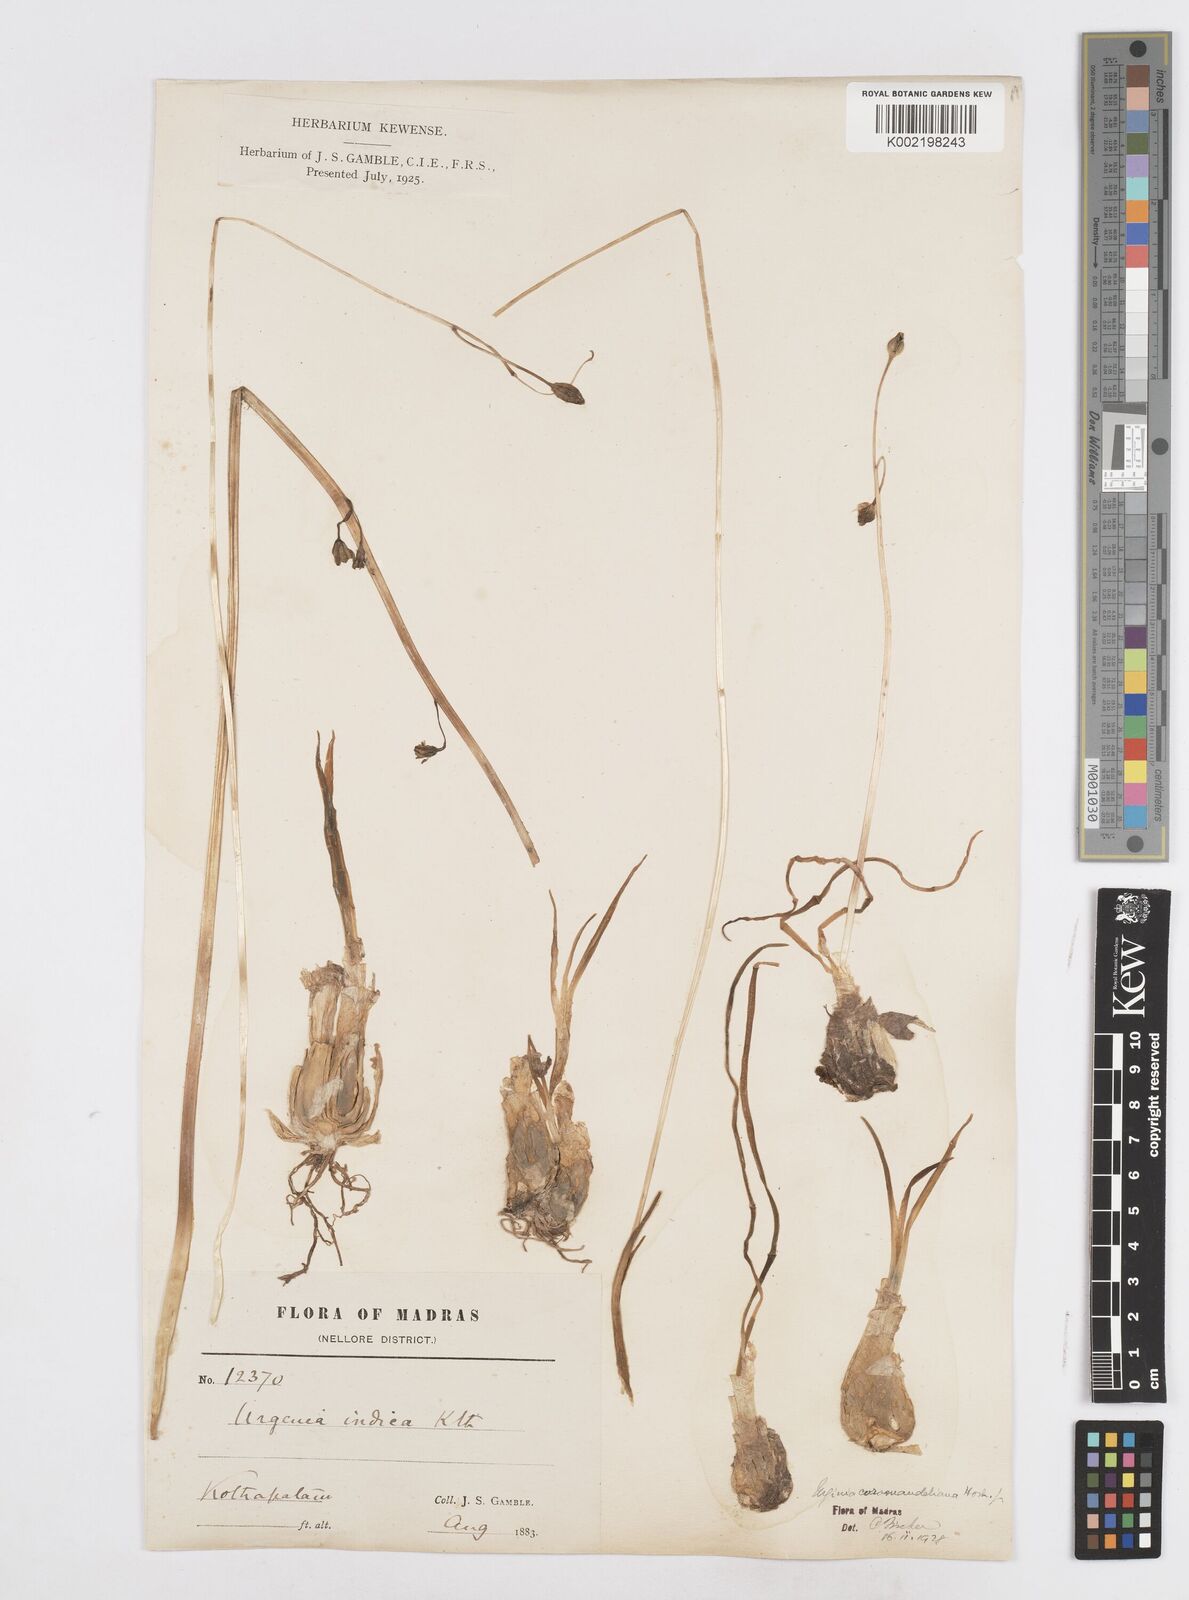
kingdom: Plantae
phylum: Tracheophyta
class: Liliopsida
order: Asparagales
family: Asparagaceae
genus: Drimia
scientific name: Drimia coromandeliana
